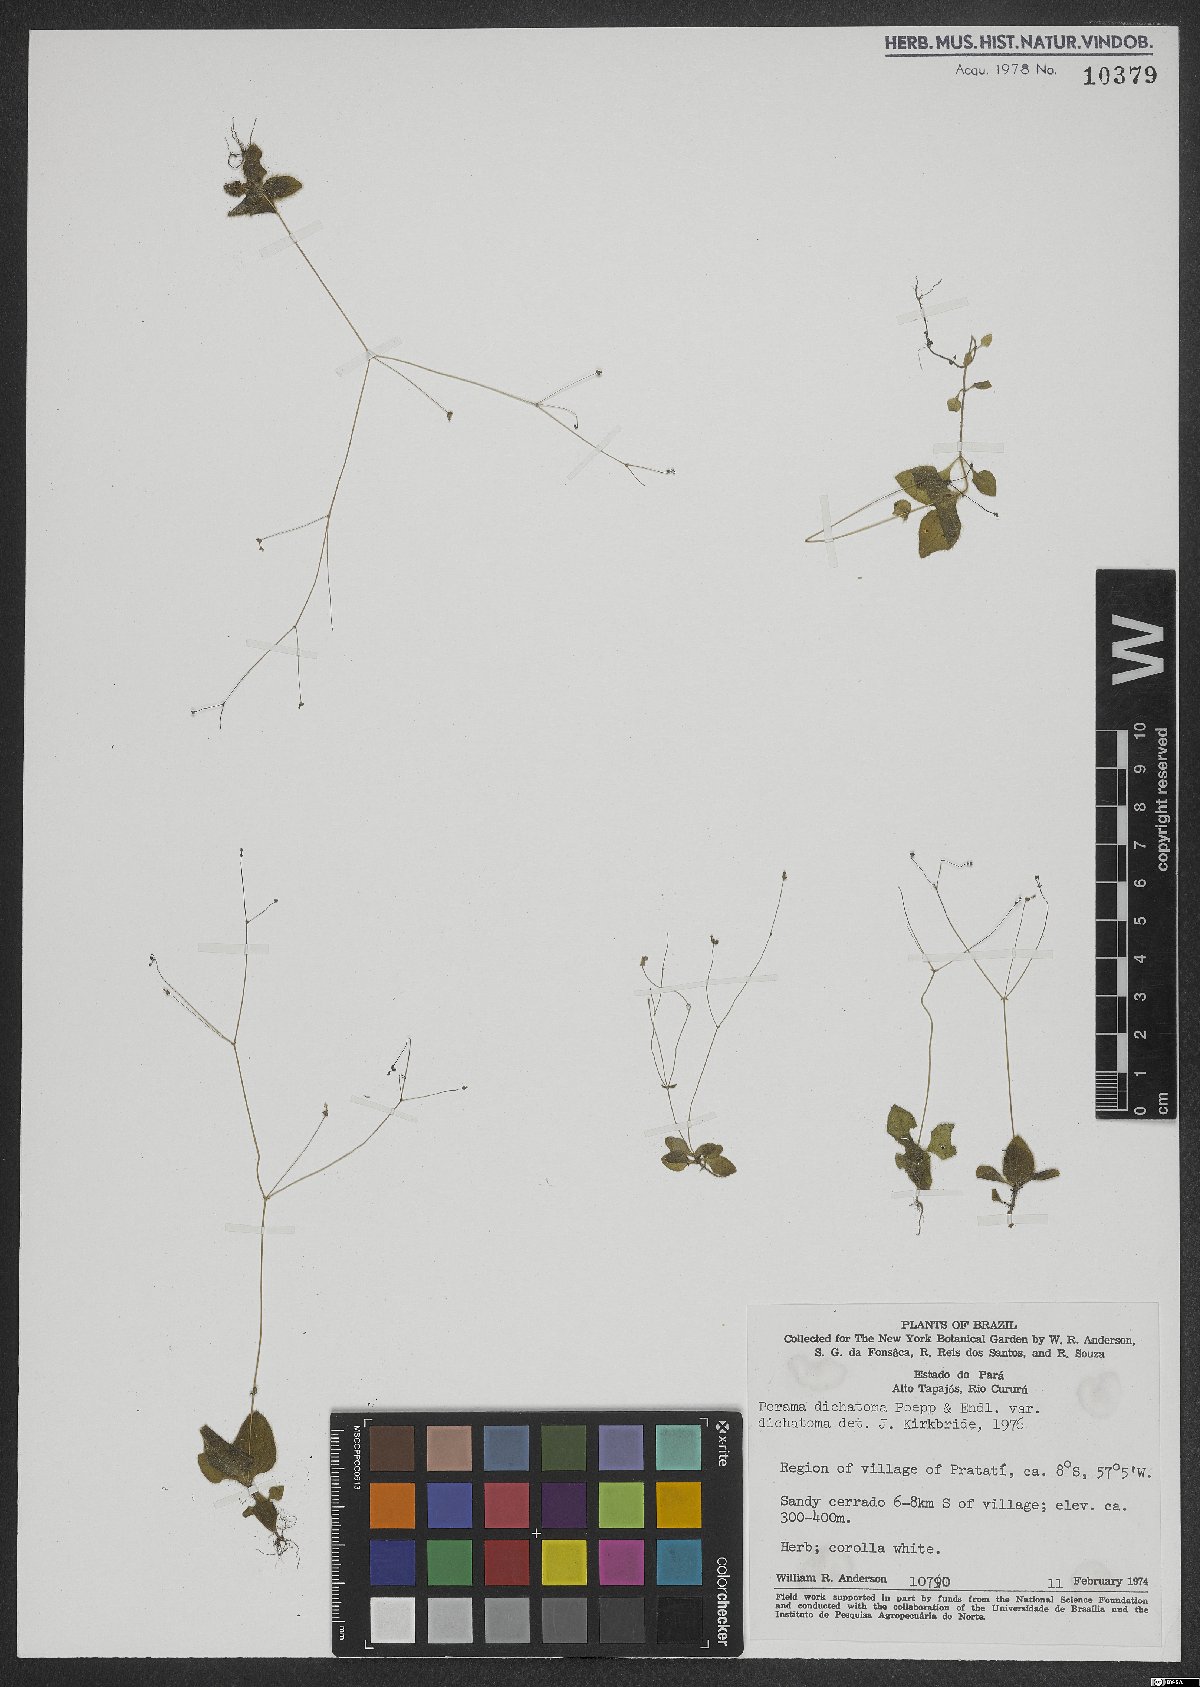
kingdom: Plantae
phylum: Tracheophyta
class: Magnoliopsida
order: Gentianales
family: Rubiaceae
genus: Perama
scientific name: Perama dichotoma
